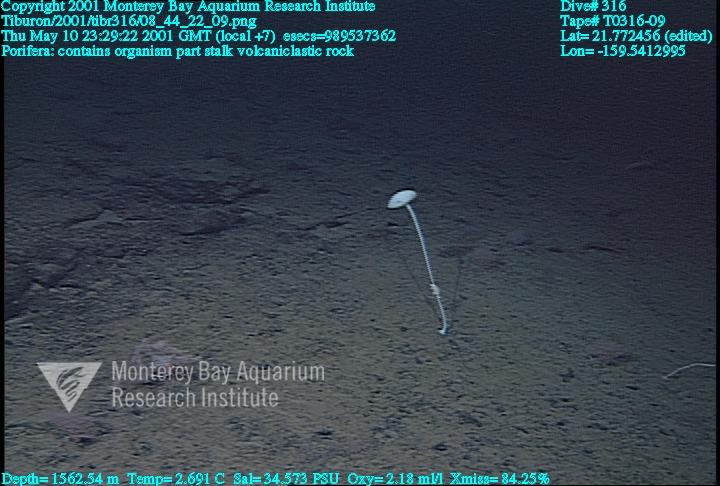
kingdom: Animalia
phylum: Porifera
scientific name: Porifera
